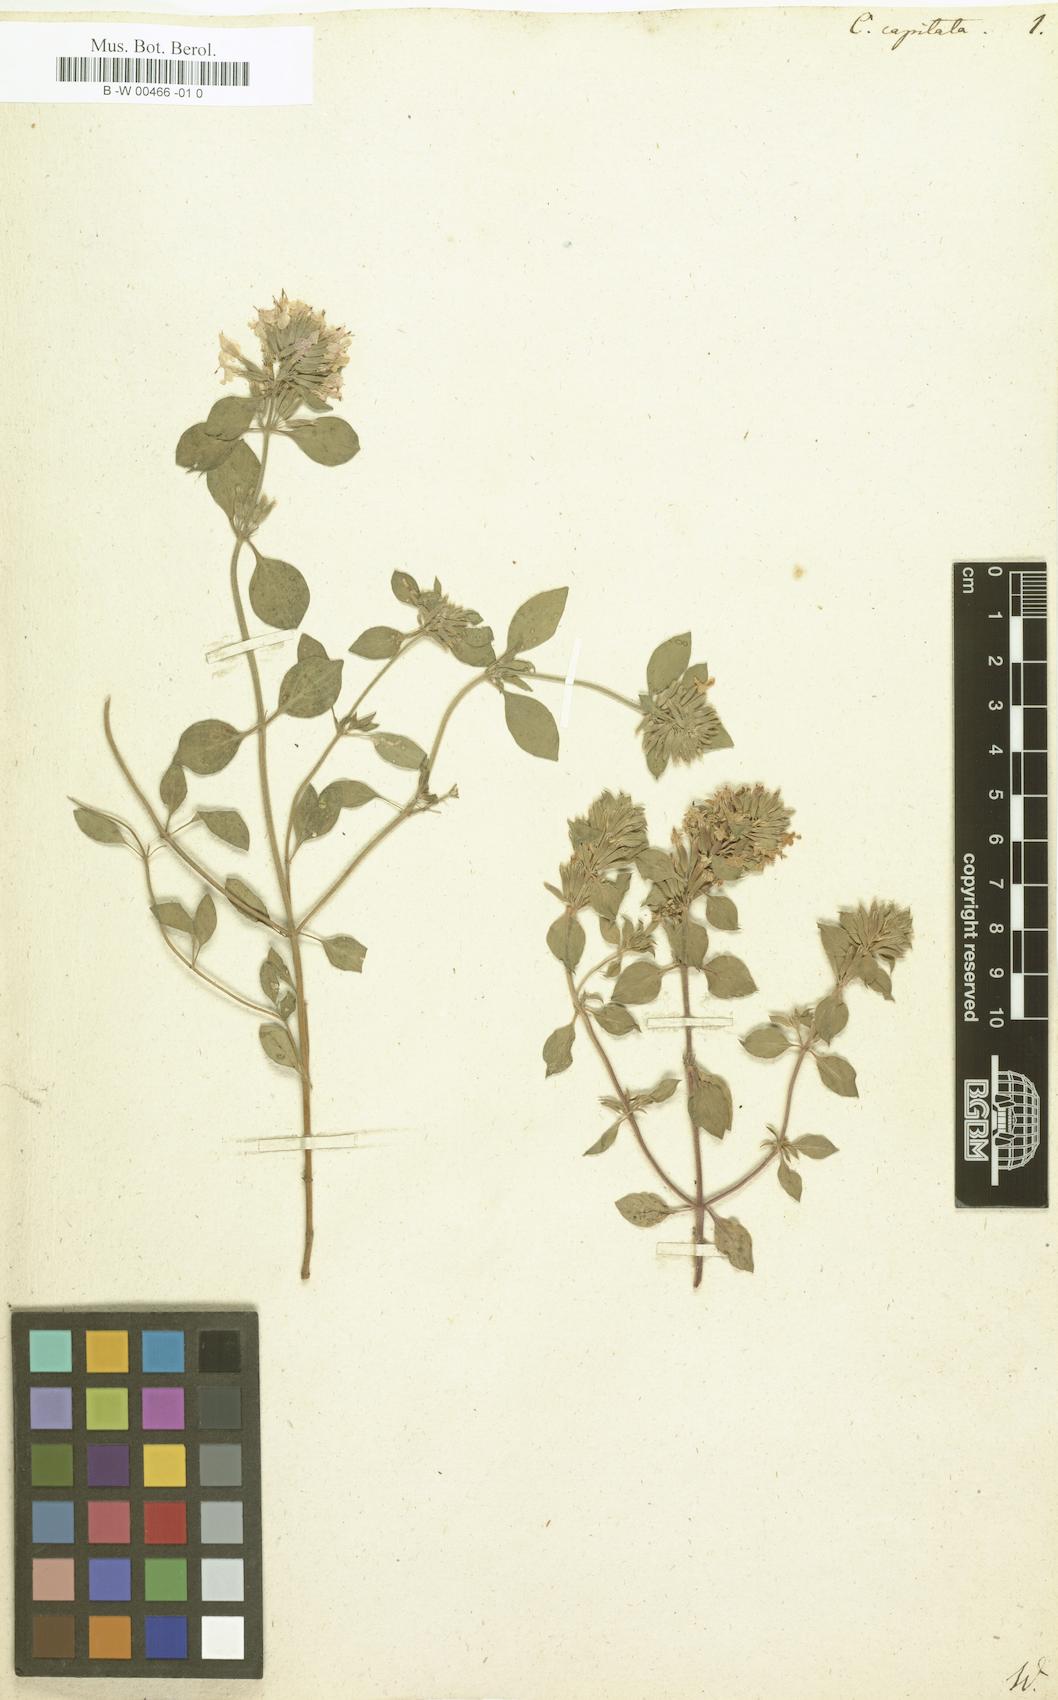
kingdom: Plantae
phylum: Tracheophyta
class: Magnoliopsida
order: Lamiales
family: Lamiaceae
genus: Ziziphora
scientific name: Ziziphora capitata
